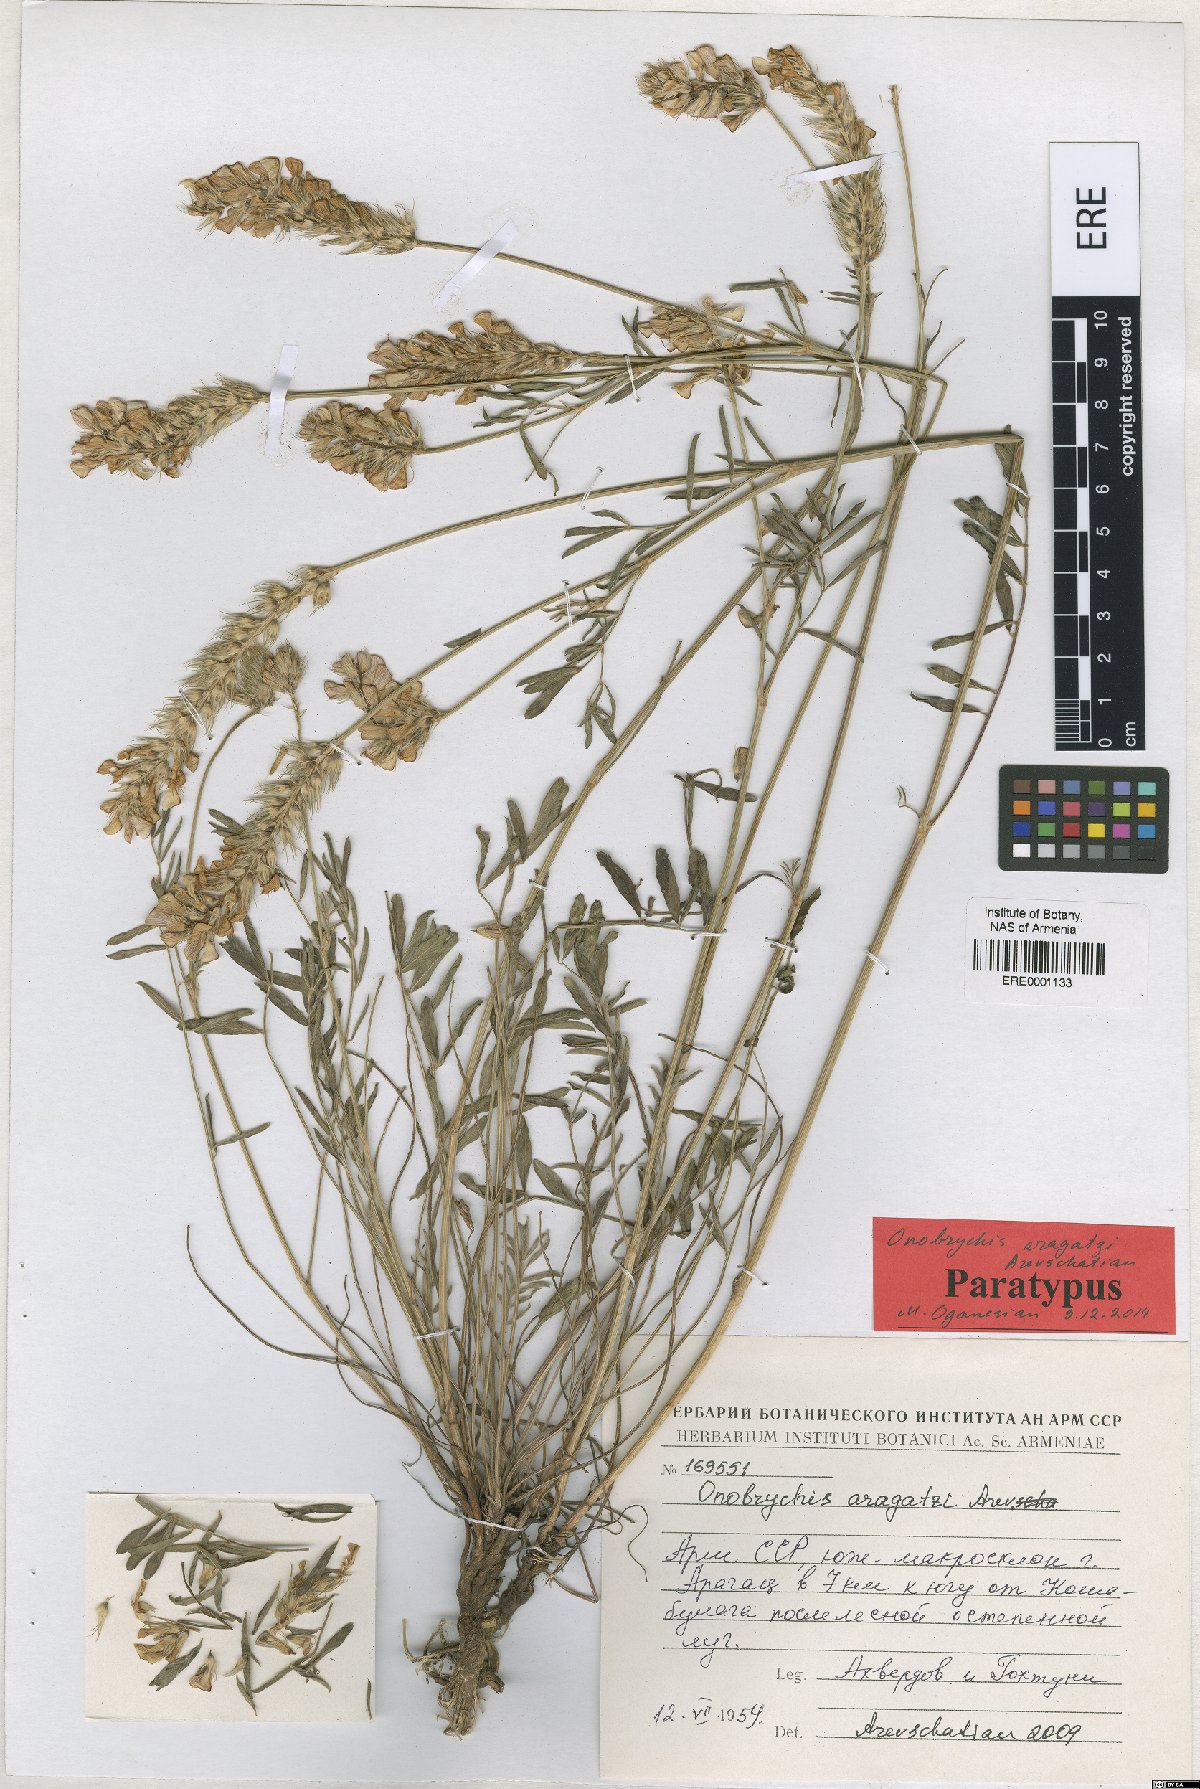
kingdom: Plantae
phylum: Tracheophyta
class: Magnoliopsida
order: Fabales
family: Fabaceae
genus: Onobrychis
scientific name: Onobrychis aragatzi
